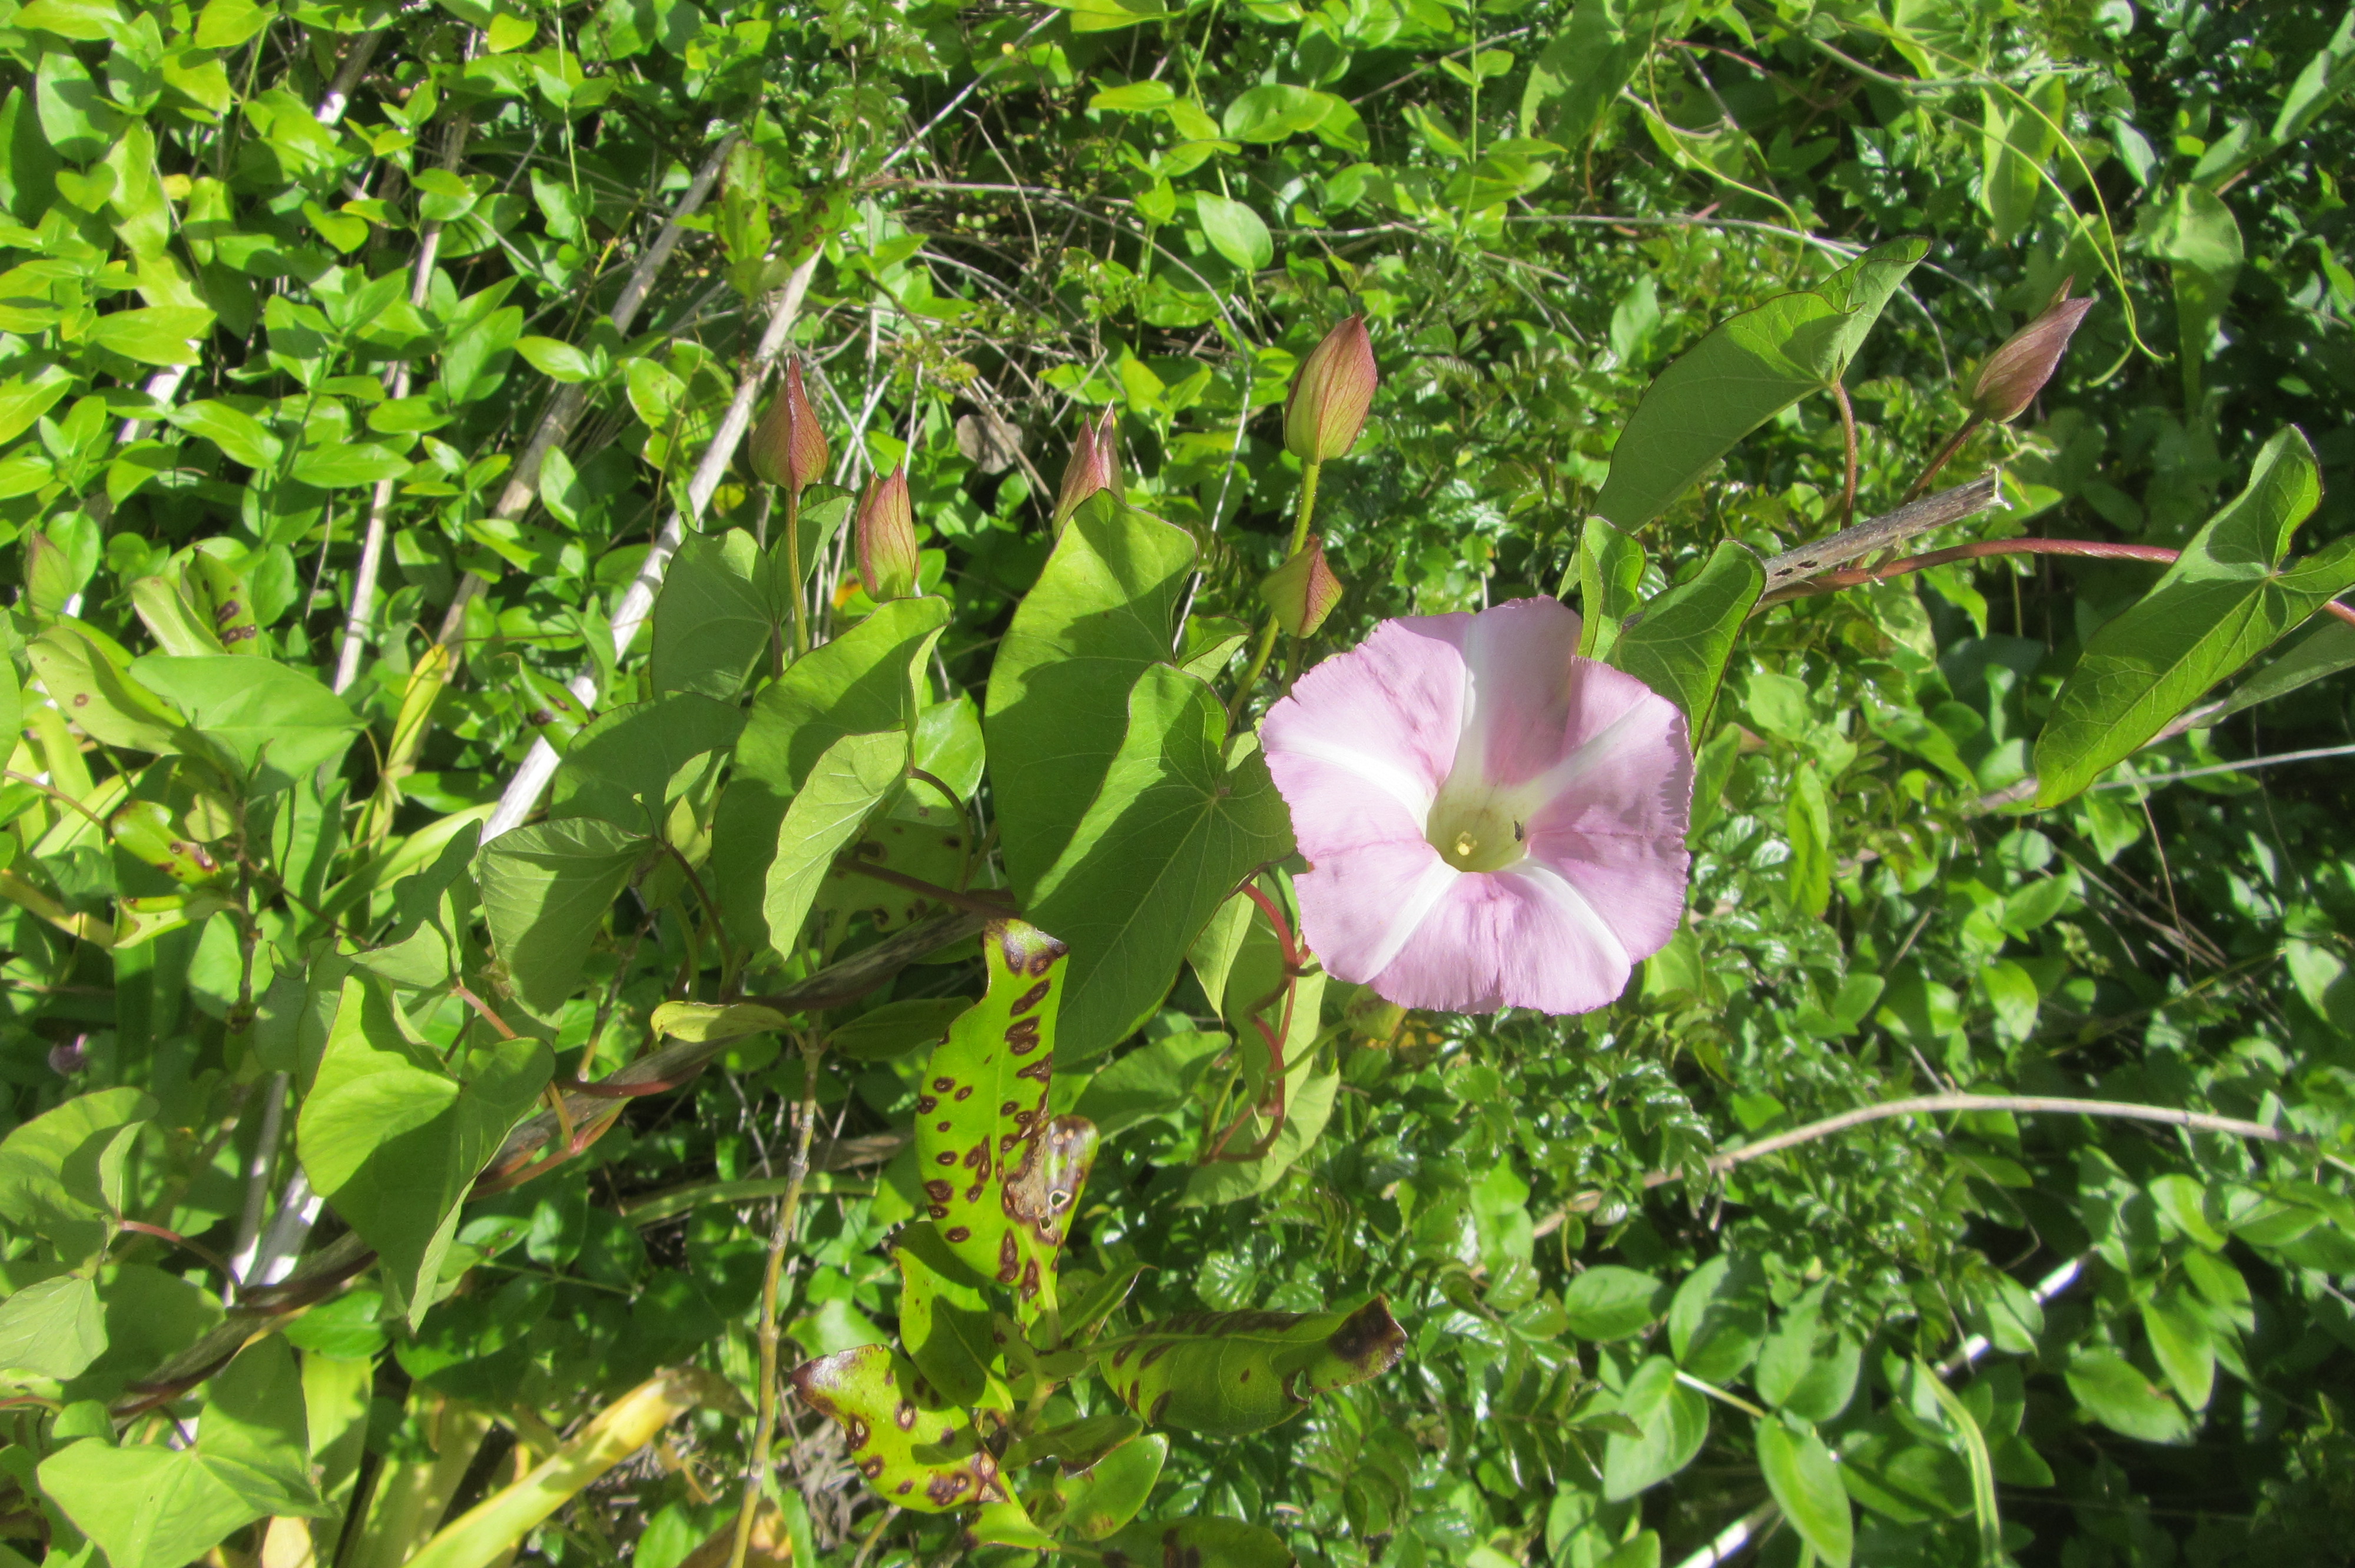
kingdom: Plantae
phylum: Tracheophyta
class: Magnoliopsida
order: Solanales
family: Convolvulaceae
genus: Calystegia
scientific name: Calystegia sepium
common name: Hedge bindweed
